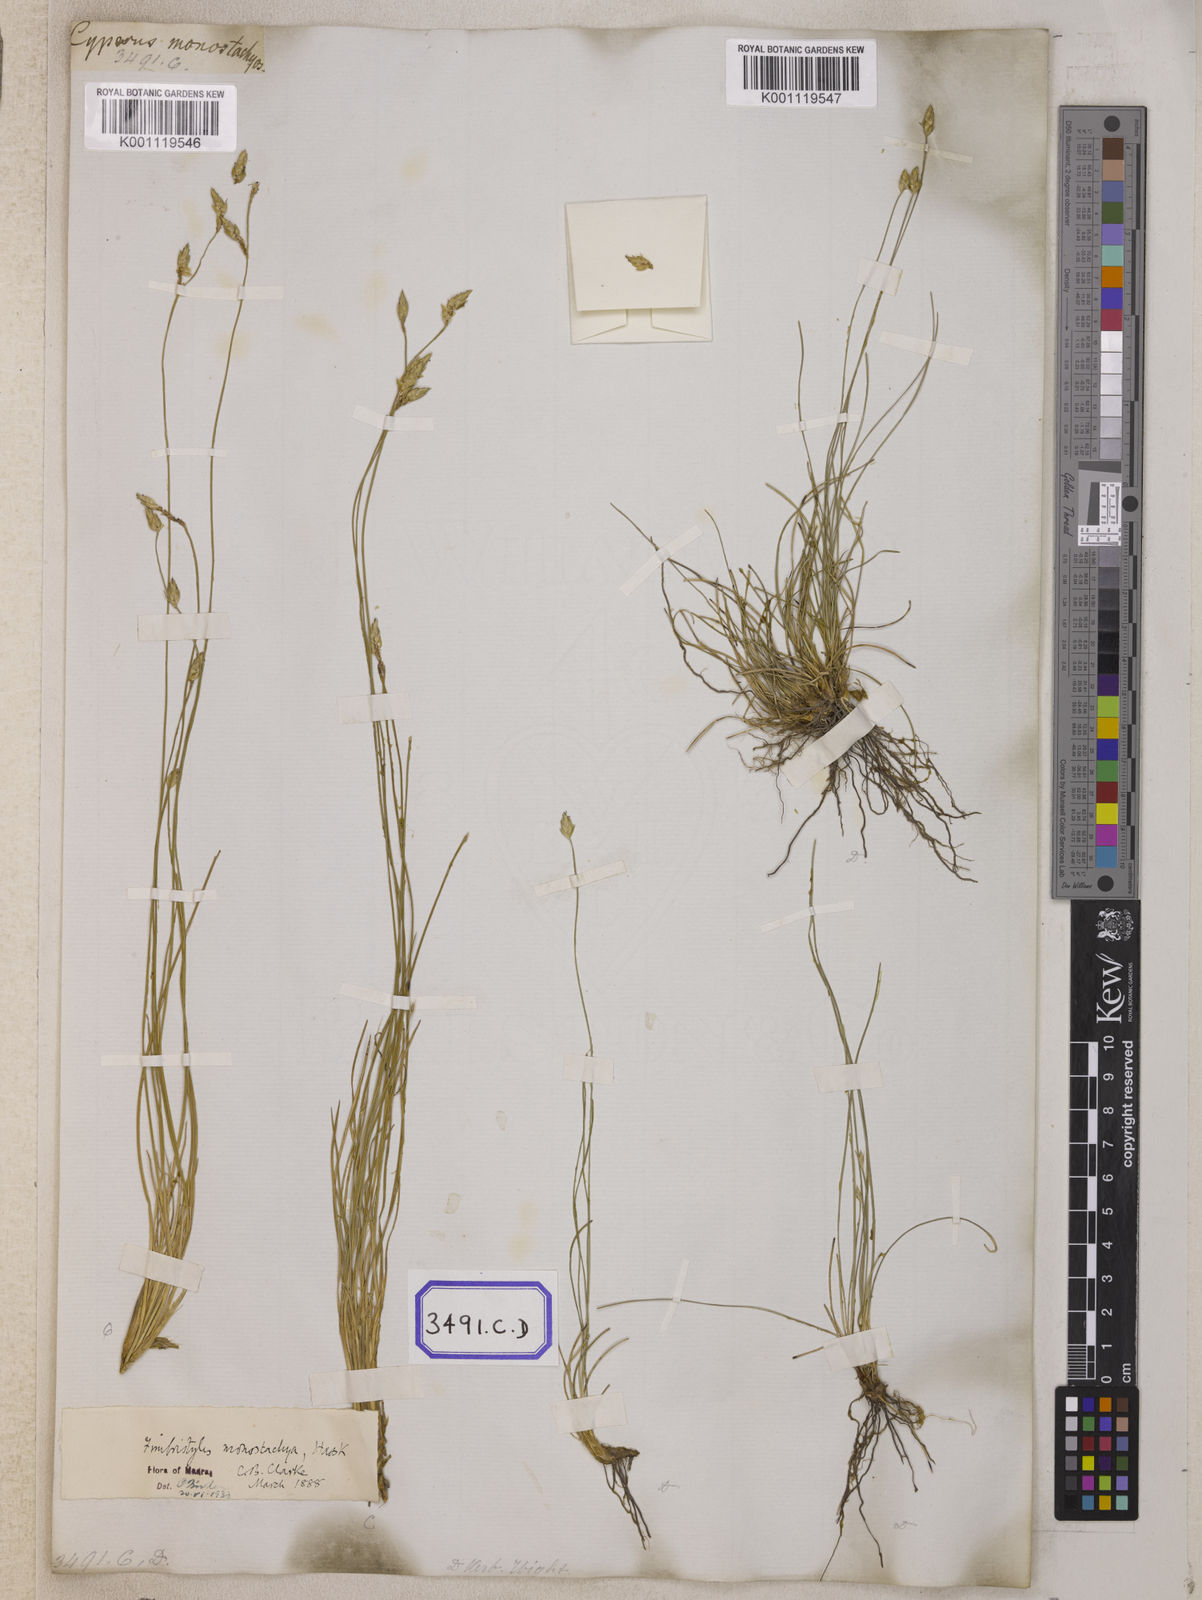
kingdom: Plantae
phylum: Tracheophyta
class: Liliopsida
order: Poales
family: Cyperaceae
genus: Abildgaardia
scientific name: Abildgaardia
